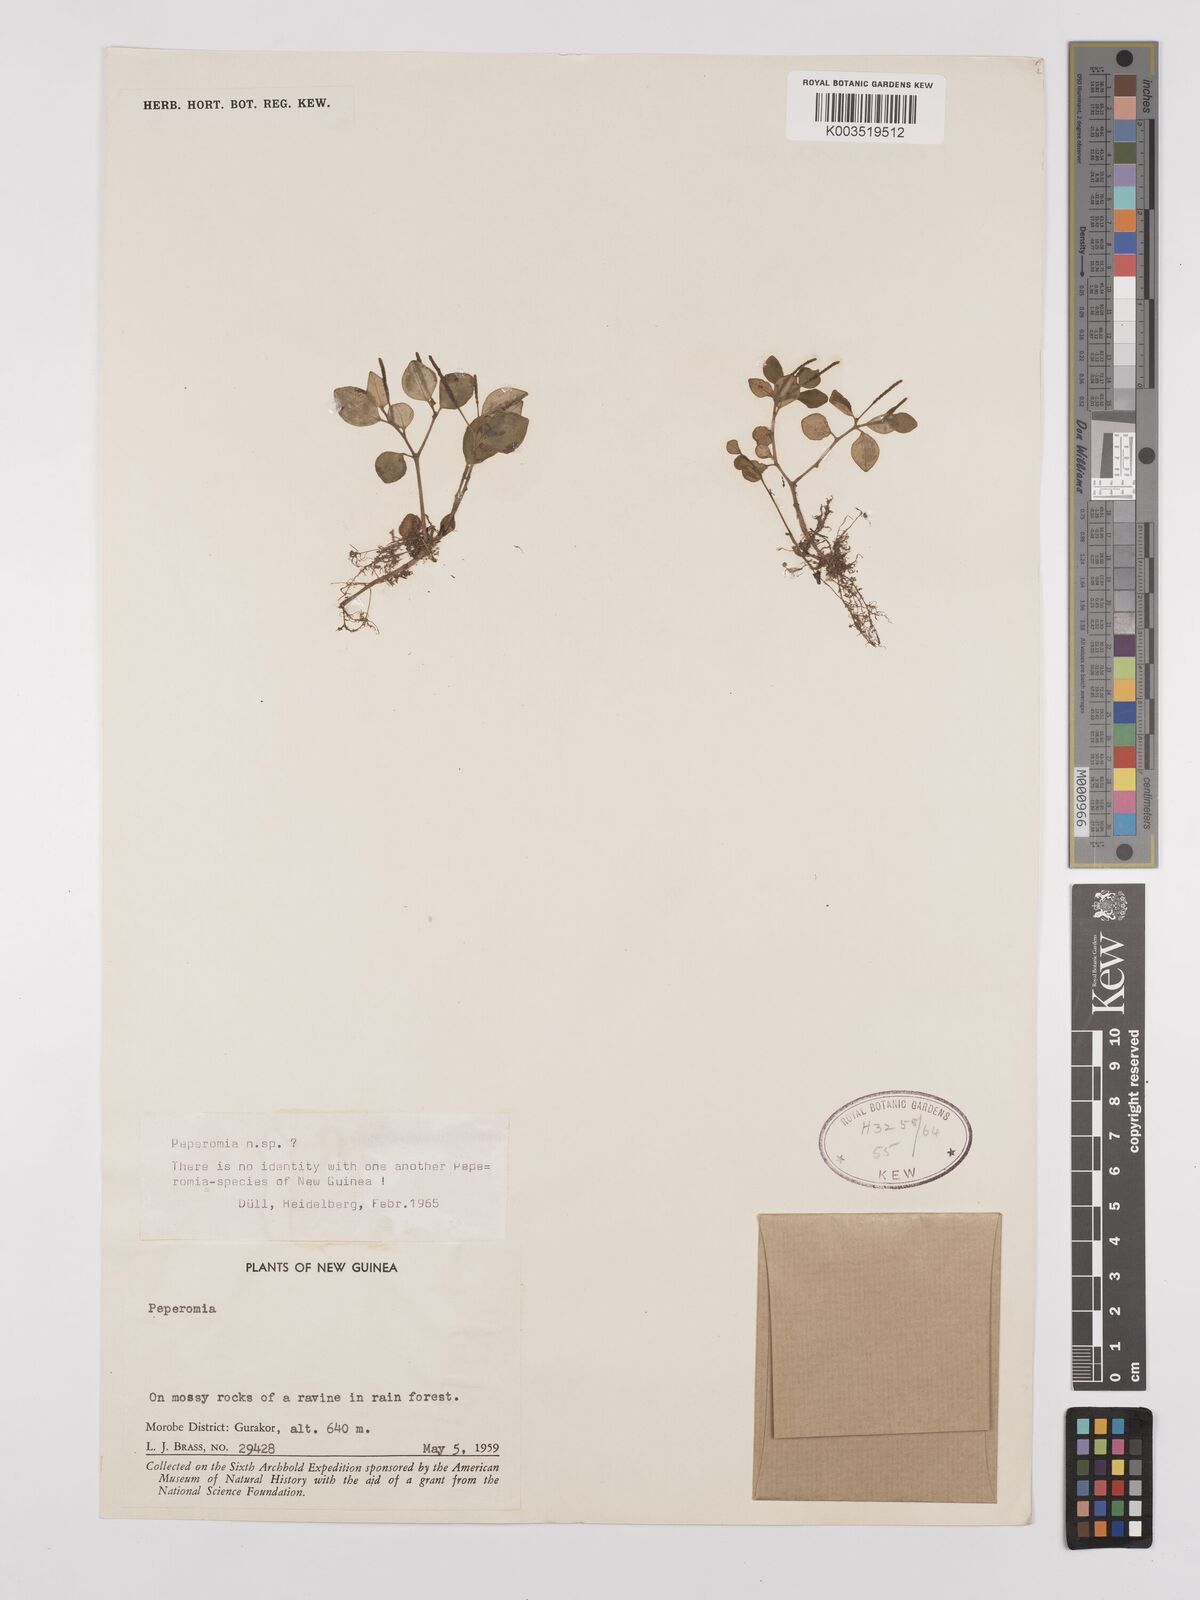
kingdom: Plantae
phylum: Tracheophyta
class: Magnoliopsida
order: Piperales
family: Piperaceae
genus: Peperomia
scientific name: Peperomia
